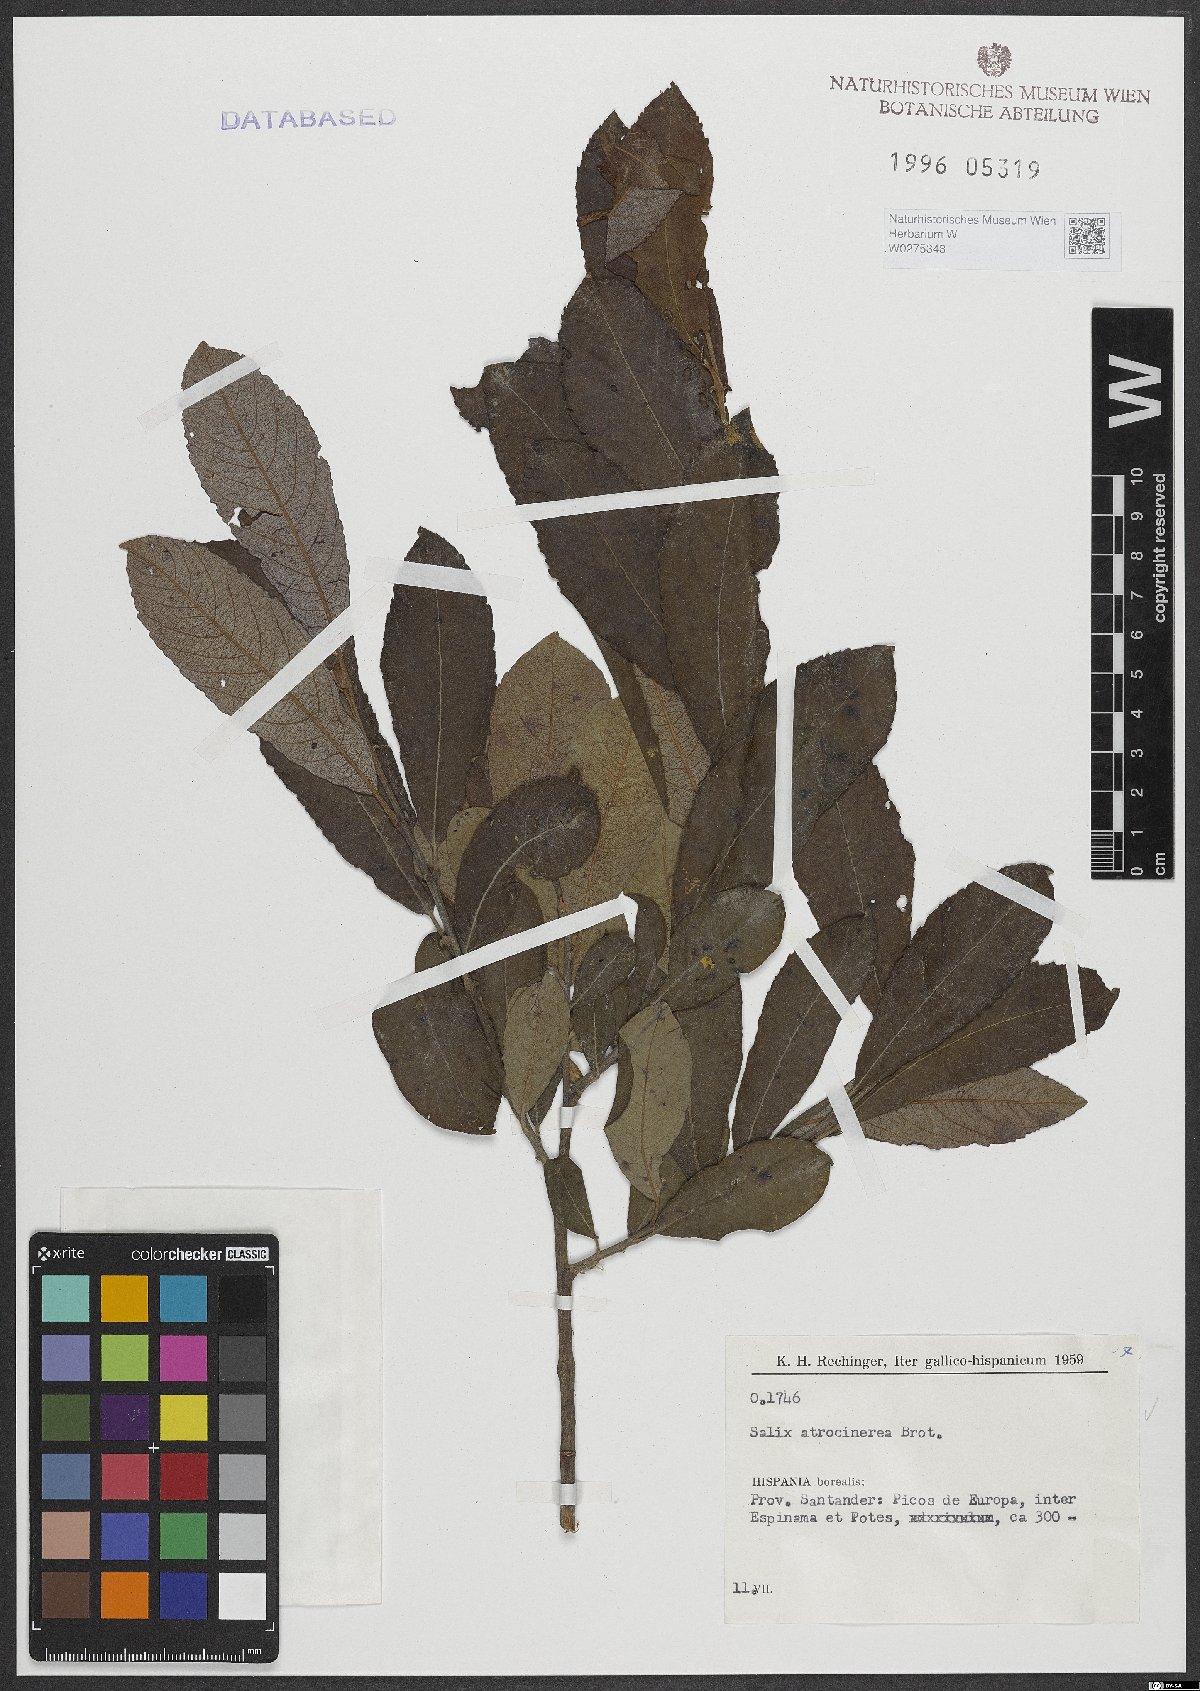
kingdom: Plantae
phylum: Tracheophyta
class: Magnoliopsida
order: Malpighiales
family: Salicaceae
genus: Salix
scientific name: Salix atrocinerea
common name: Rusty willow
